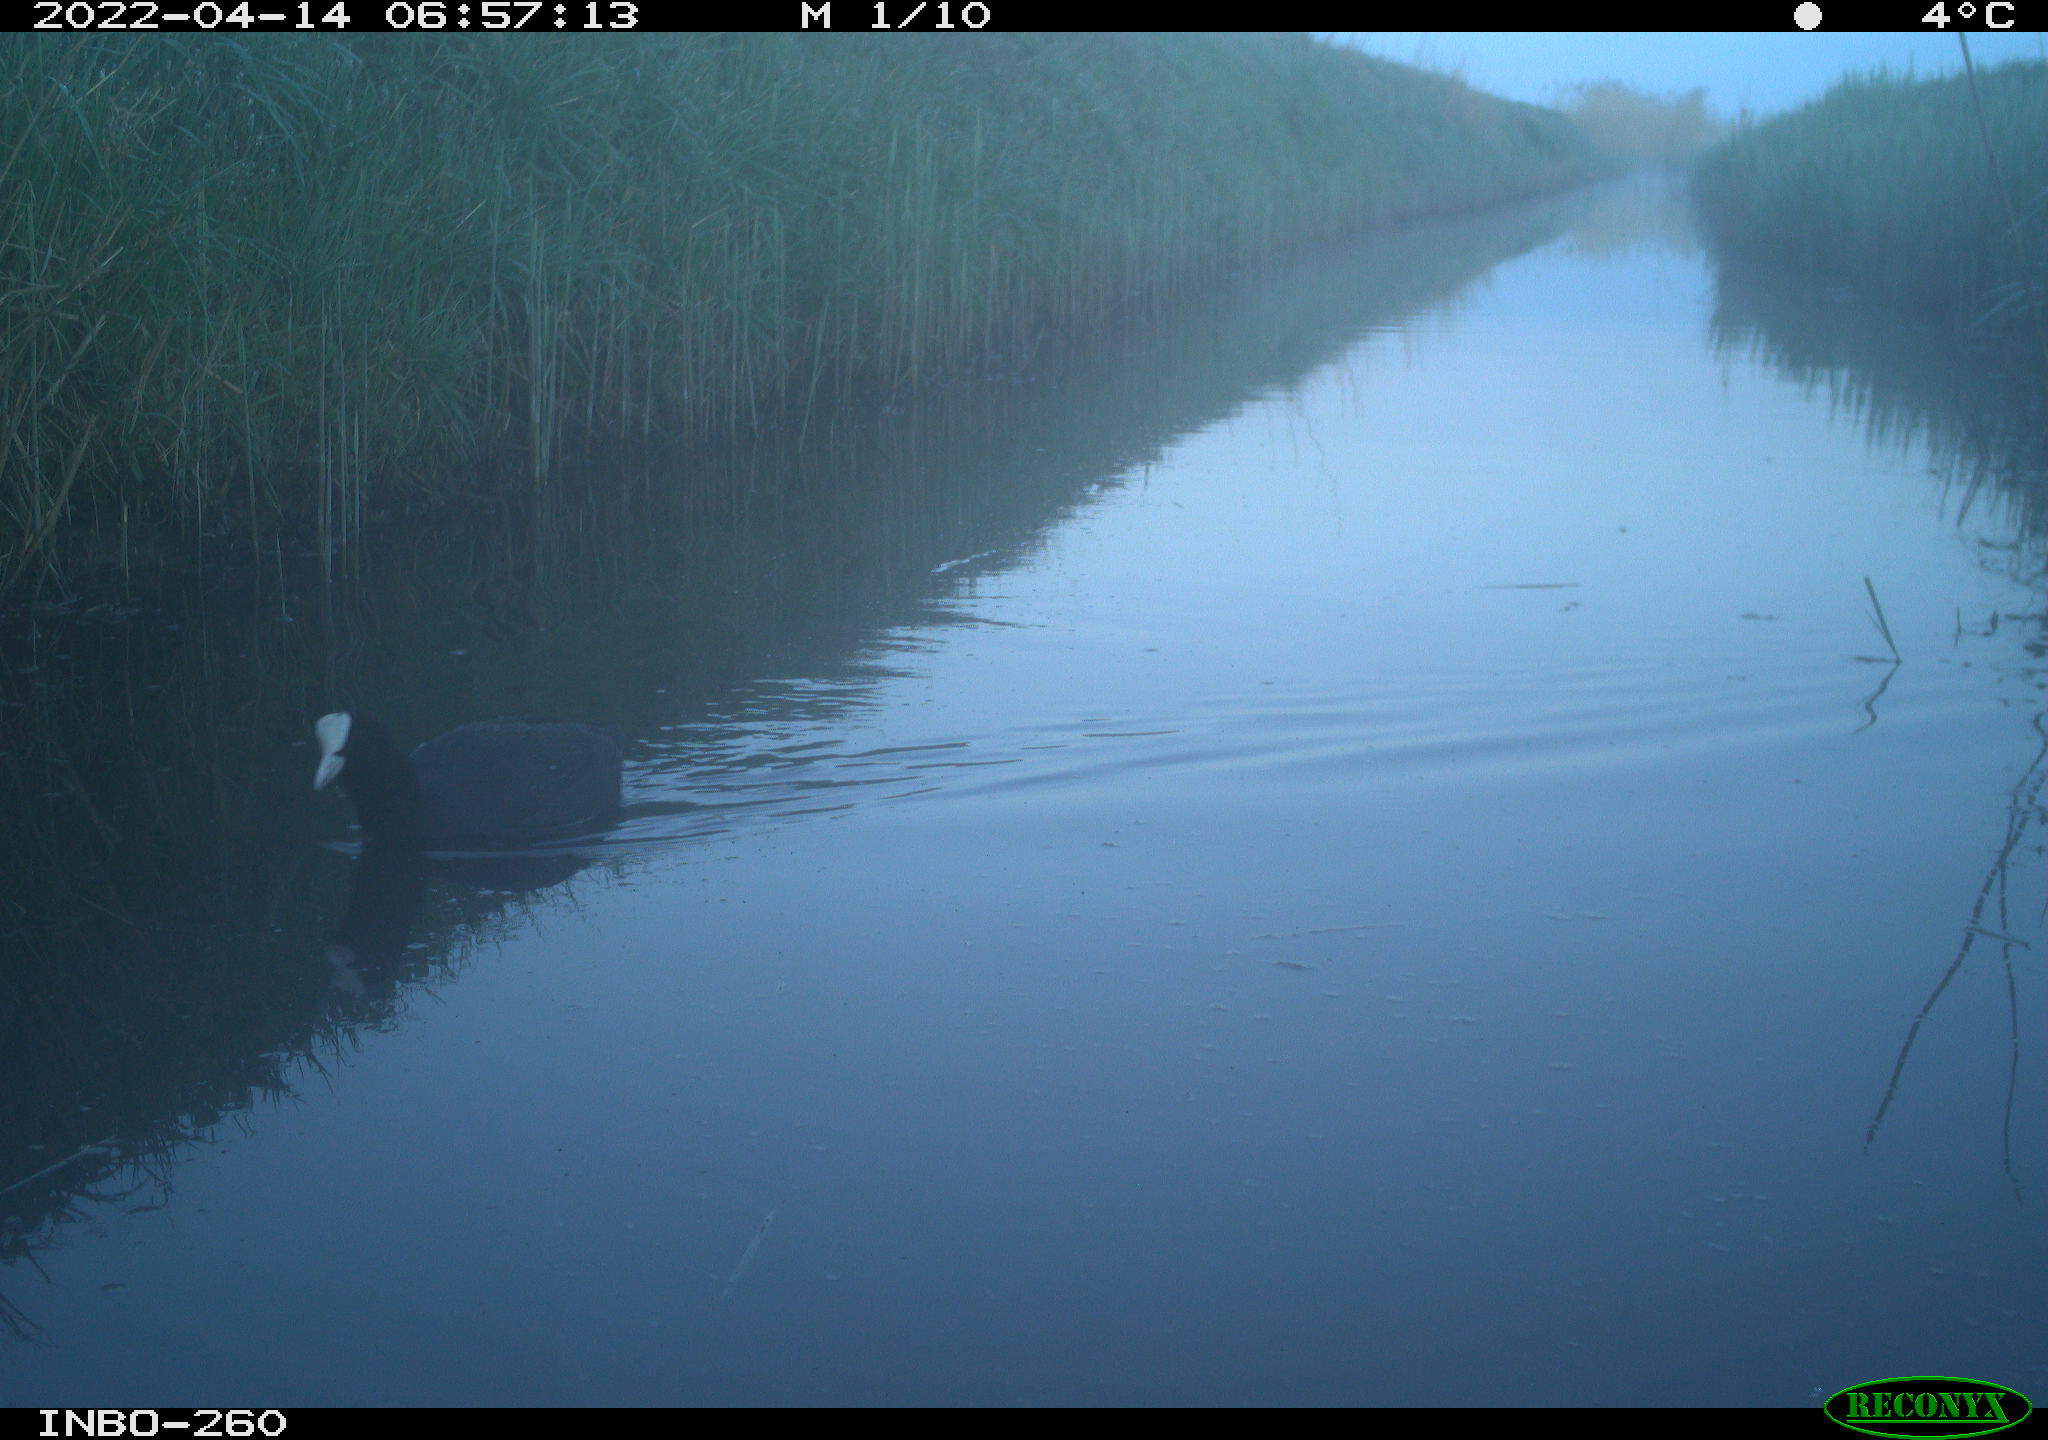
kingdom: Animalia
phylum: Chordata
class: Aves
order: Gruiformes
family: Rallidae
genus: Fulica
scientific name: Fulica atra
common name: Eurasian coot
